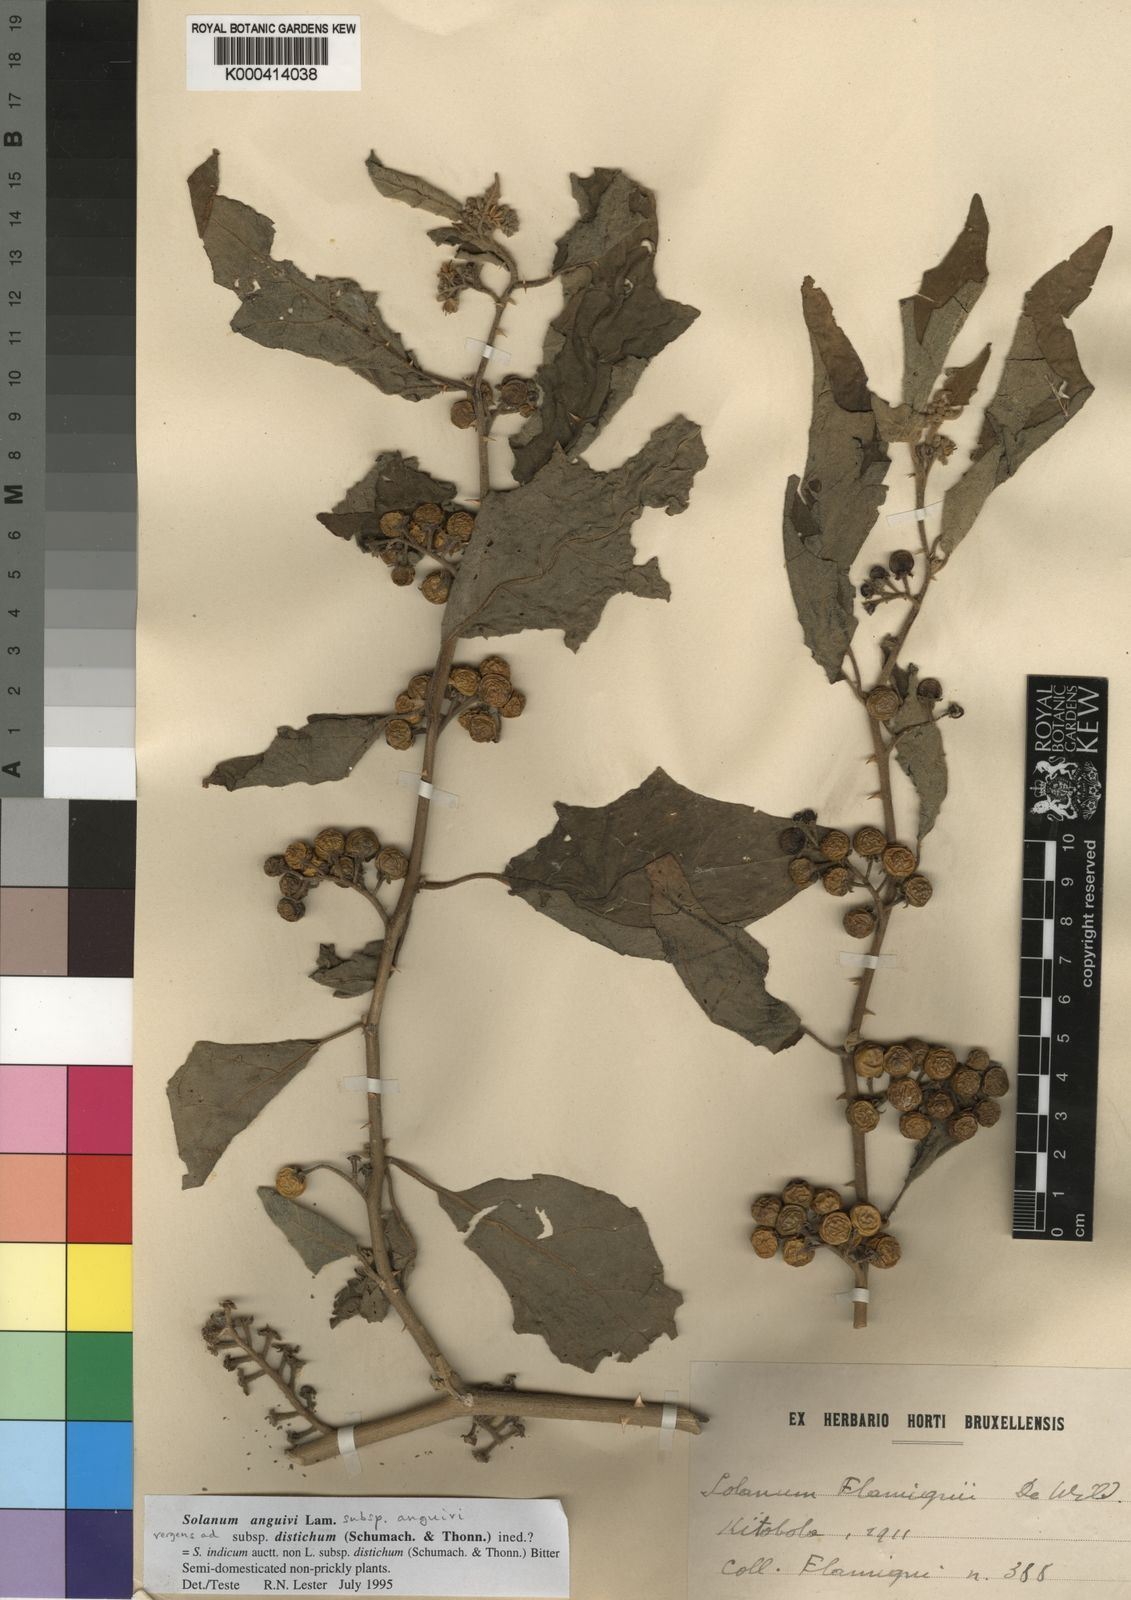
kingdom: Plantae
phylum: Tracheophyta
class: Magnoliopsida
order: Solanales
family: Solanaceae
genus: Solanum
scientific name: Solanum violaceum
